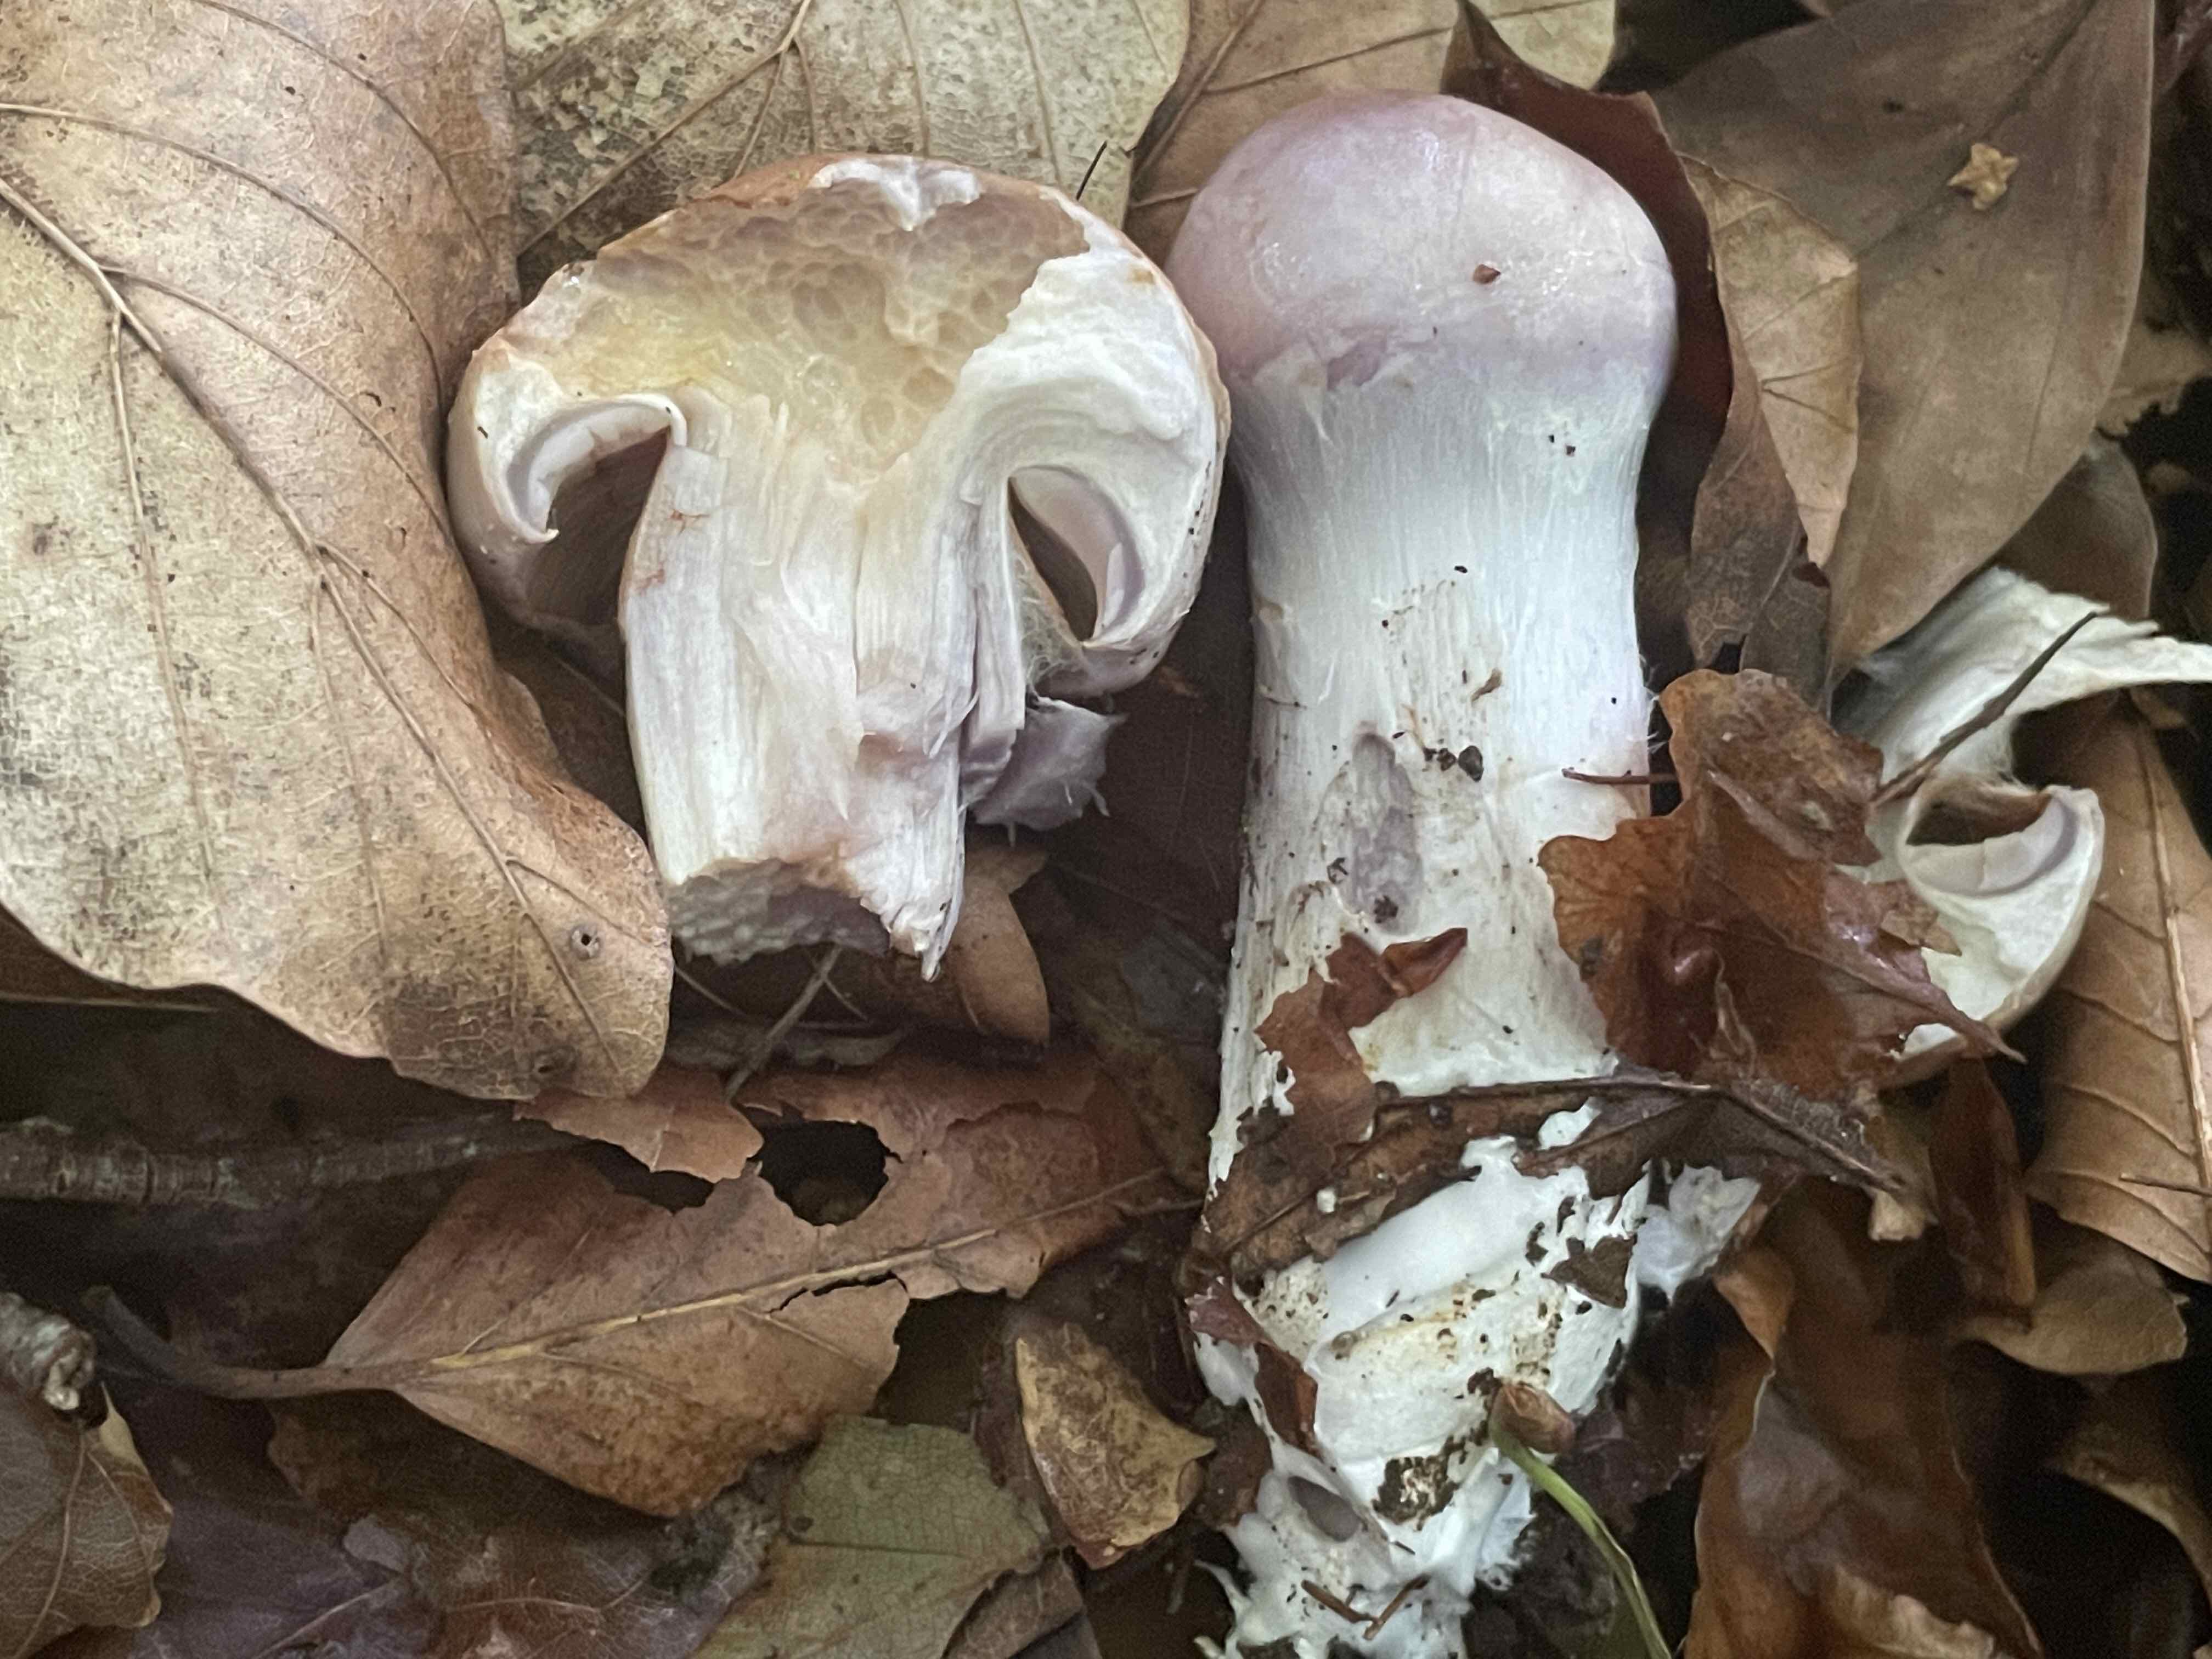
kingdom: Fungi
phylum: Basidiomycota
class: Agaricomycetes
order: Agaricales
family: Cortinariaceae
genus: Cortinarius
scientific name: Cortinarius largus
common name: violetrandet slørhat
